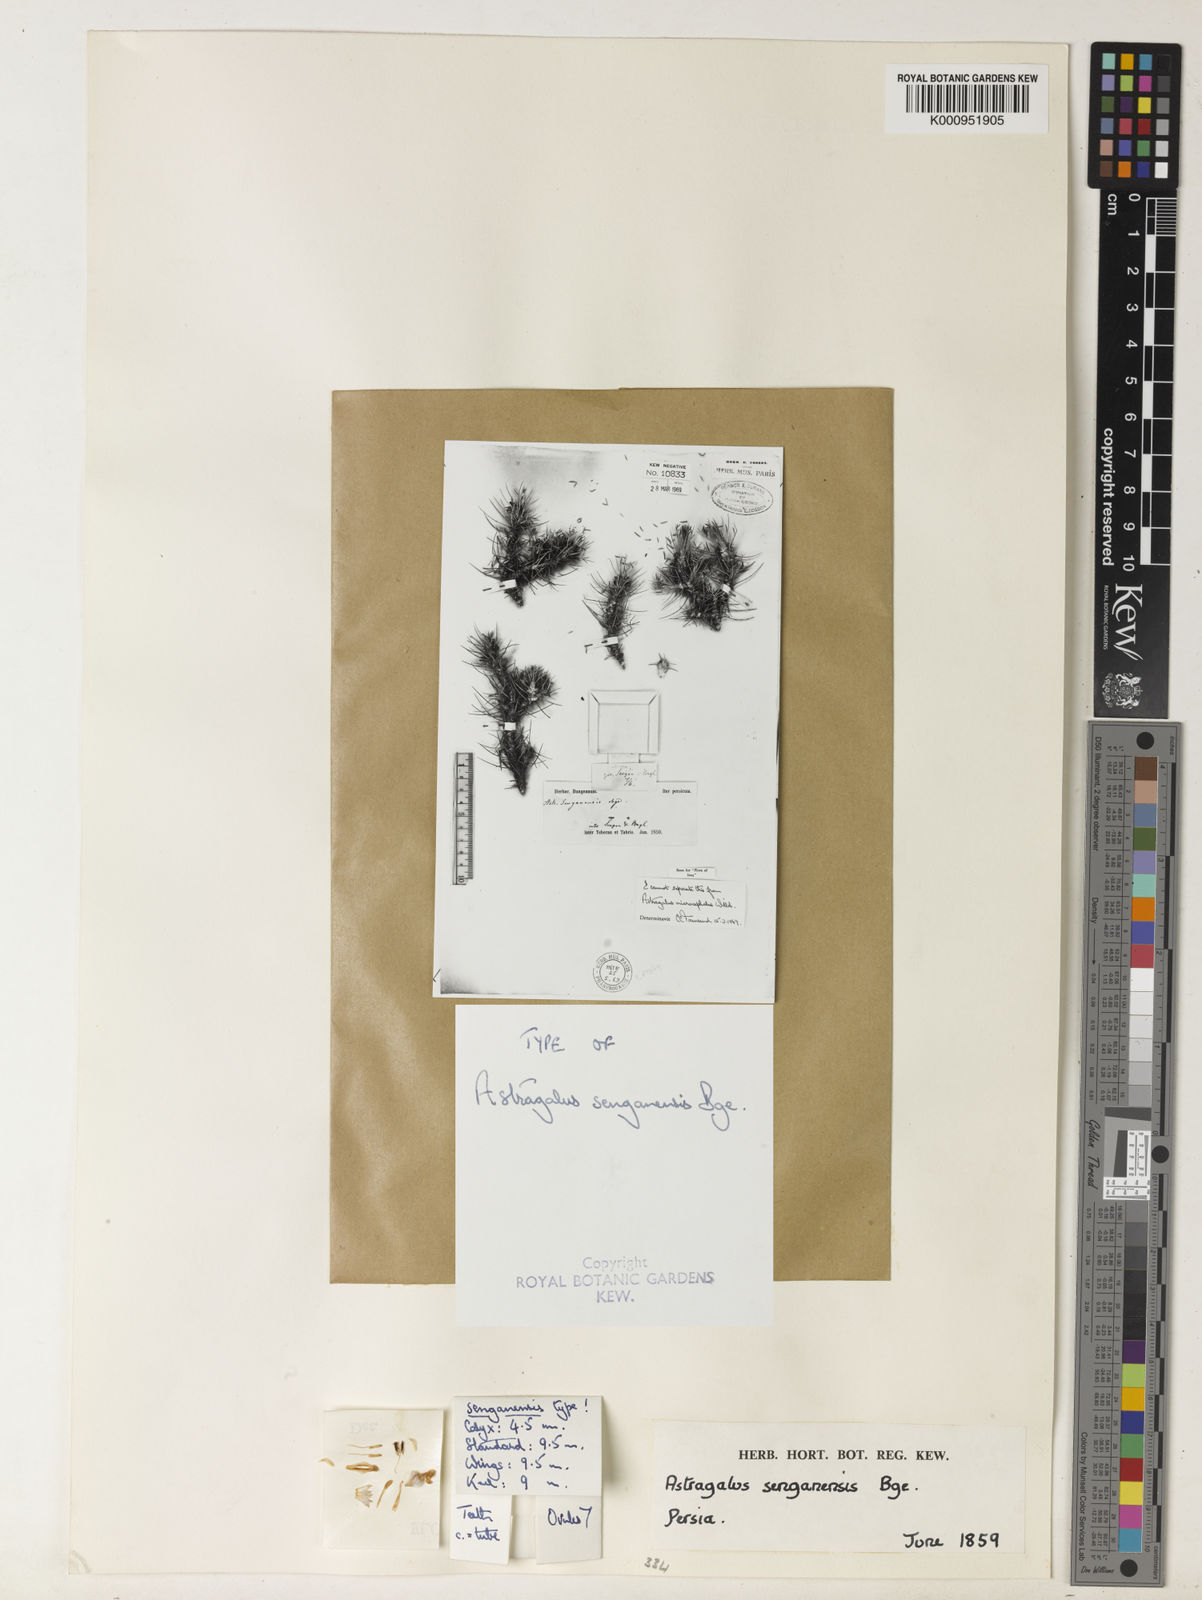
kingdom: Plantae
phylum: Tracheophyta
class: Magnoliopsida
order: Fabales
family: Fabaceae
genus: Astragalus
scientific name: Astragalus microcephalus
